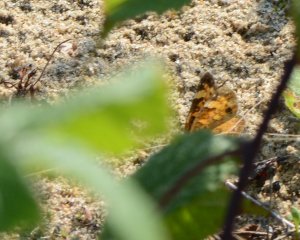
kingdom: Animalia
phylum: Arthropoda
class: Insecta
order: Lepidoptera
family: Nymphalidae
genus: Phyciodes
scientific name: Phyciodes tharos
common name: Northern Crescent
